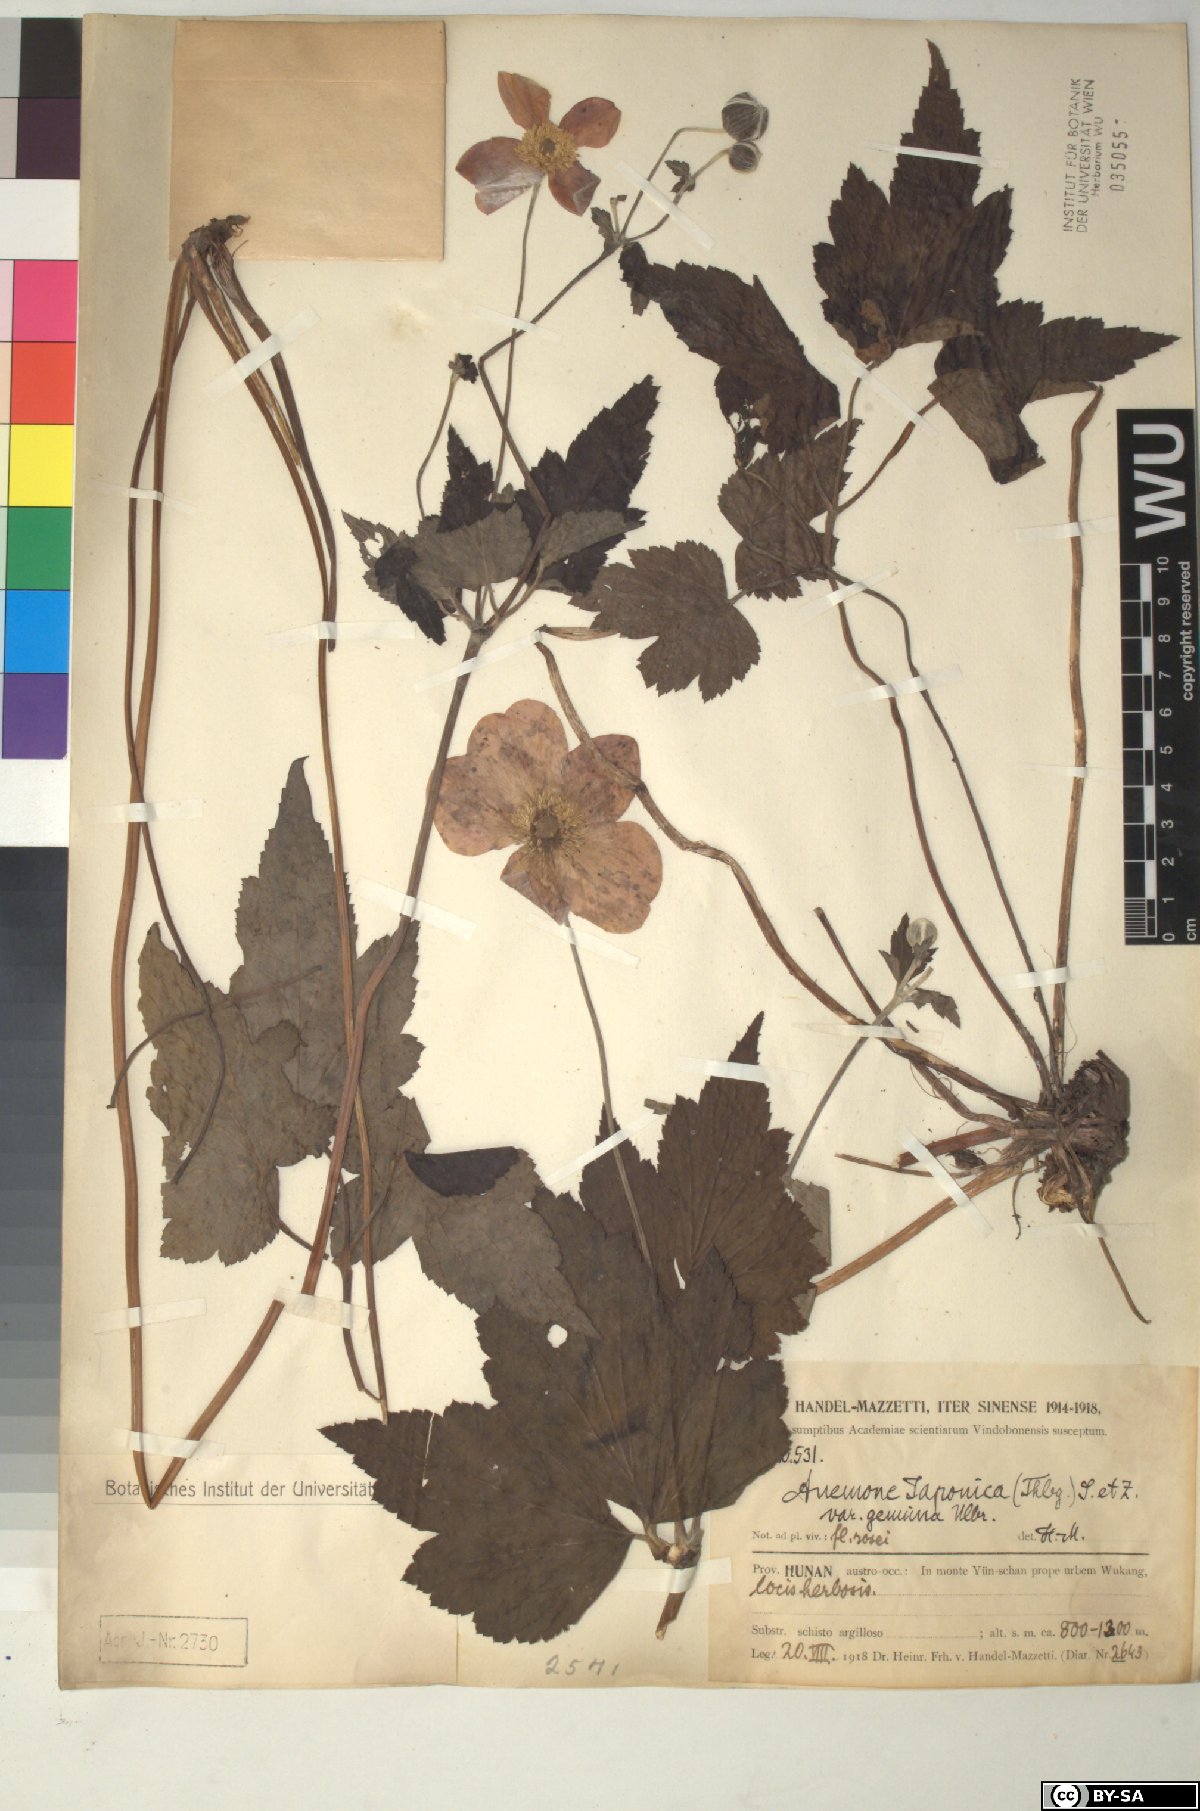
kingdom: Plantae
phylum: Tracheophyta
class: Magnoliopsida
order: Ranunculales
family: Ranunculaceae
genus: Eriocapitella
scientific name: Eriocapitella japonica
